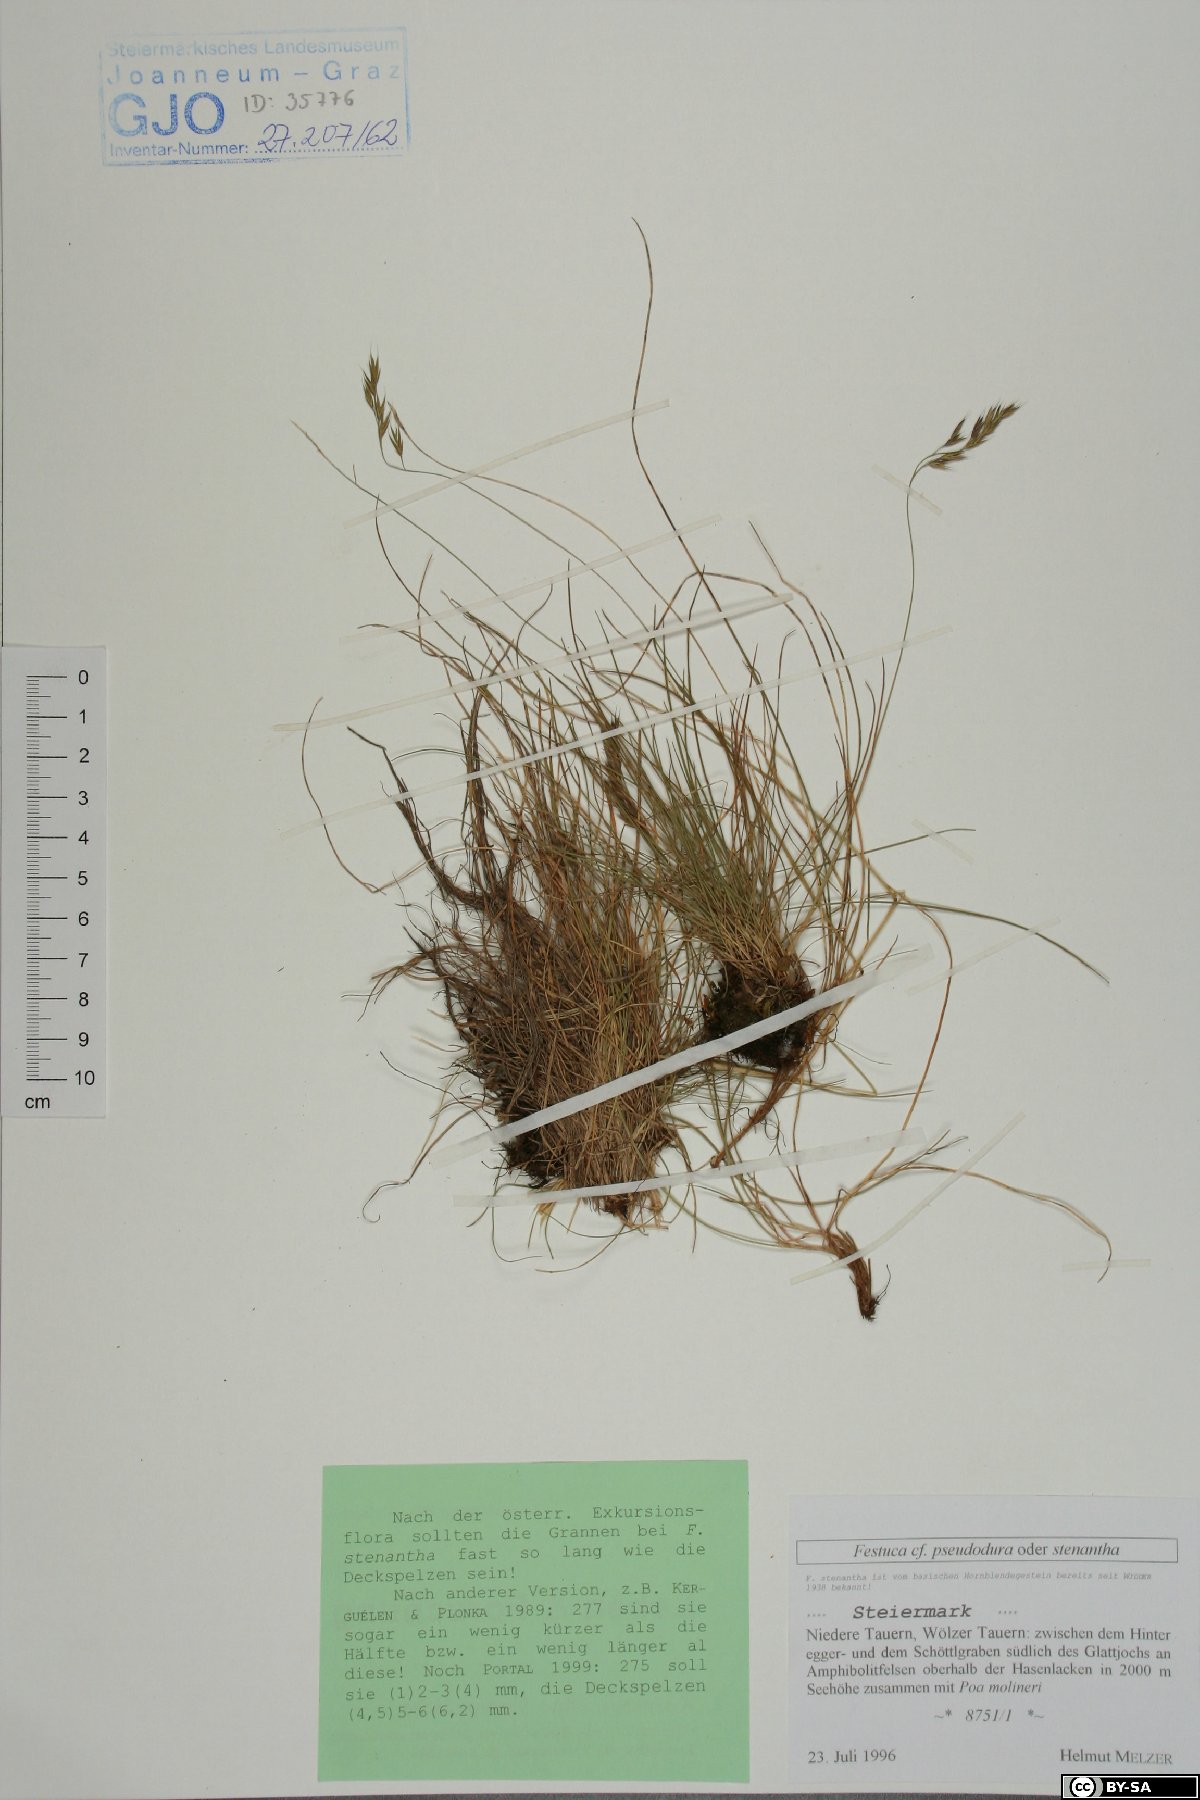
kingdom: Plantae
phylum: Tracheophyta
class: Liliopsida
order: Poales
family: Poaceae
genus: Festuca
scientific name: Festuca pseudodura
